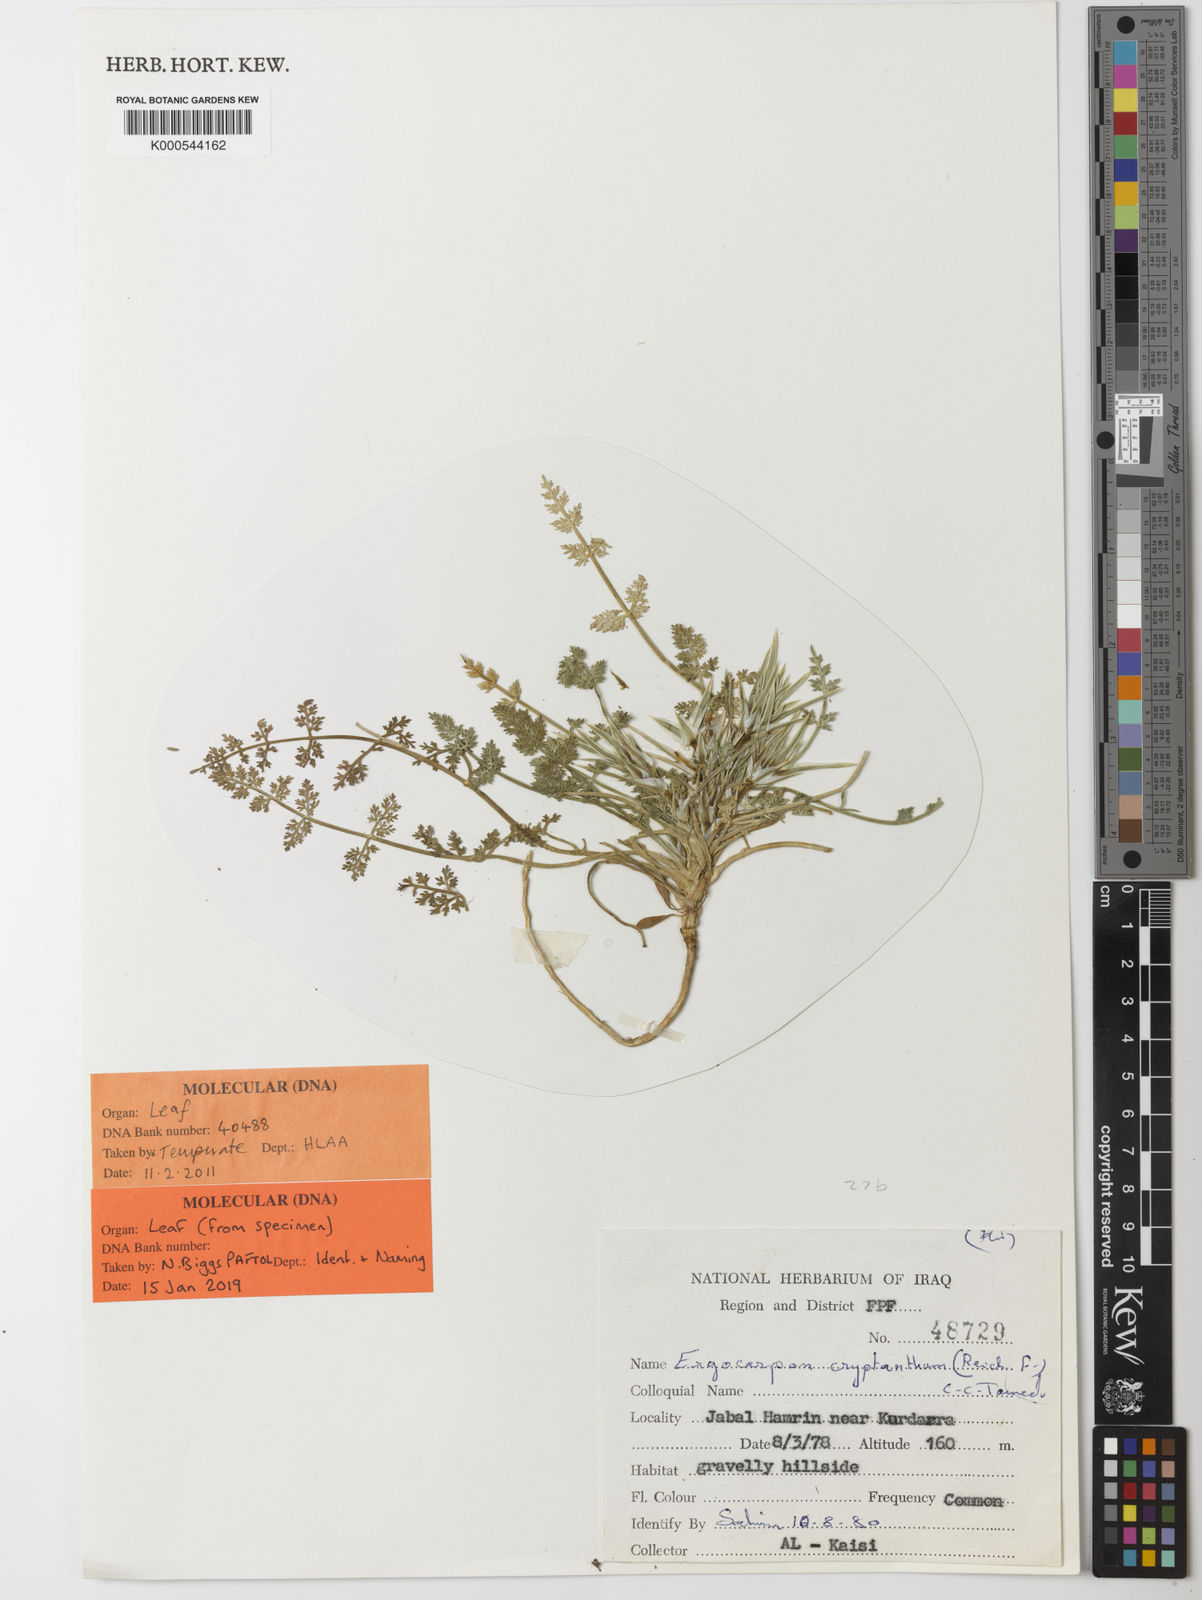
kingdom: Plantae
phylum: Tracheophyta
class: Magnoliopsida
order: Apiales
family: Apiaceae
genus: Ergocarpon
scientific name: Ergocarpon cryptanthum
